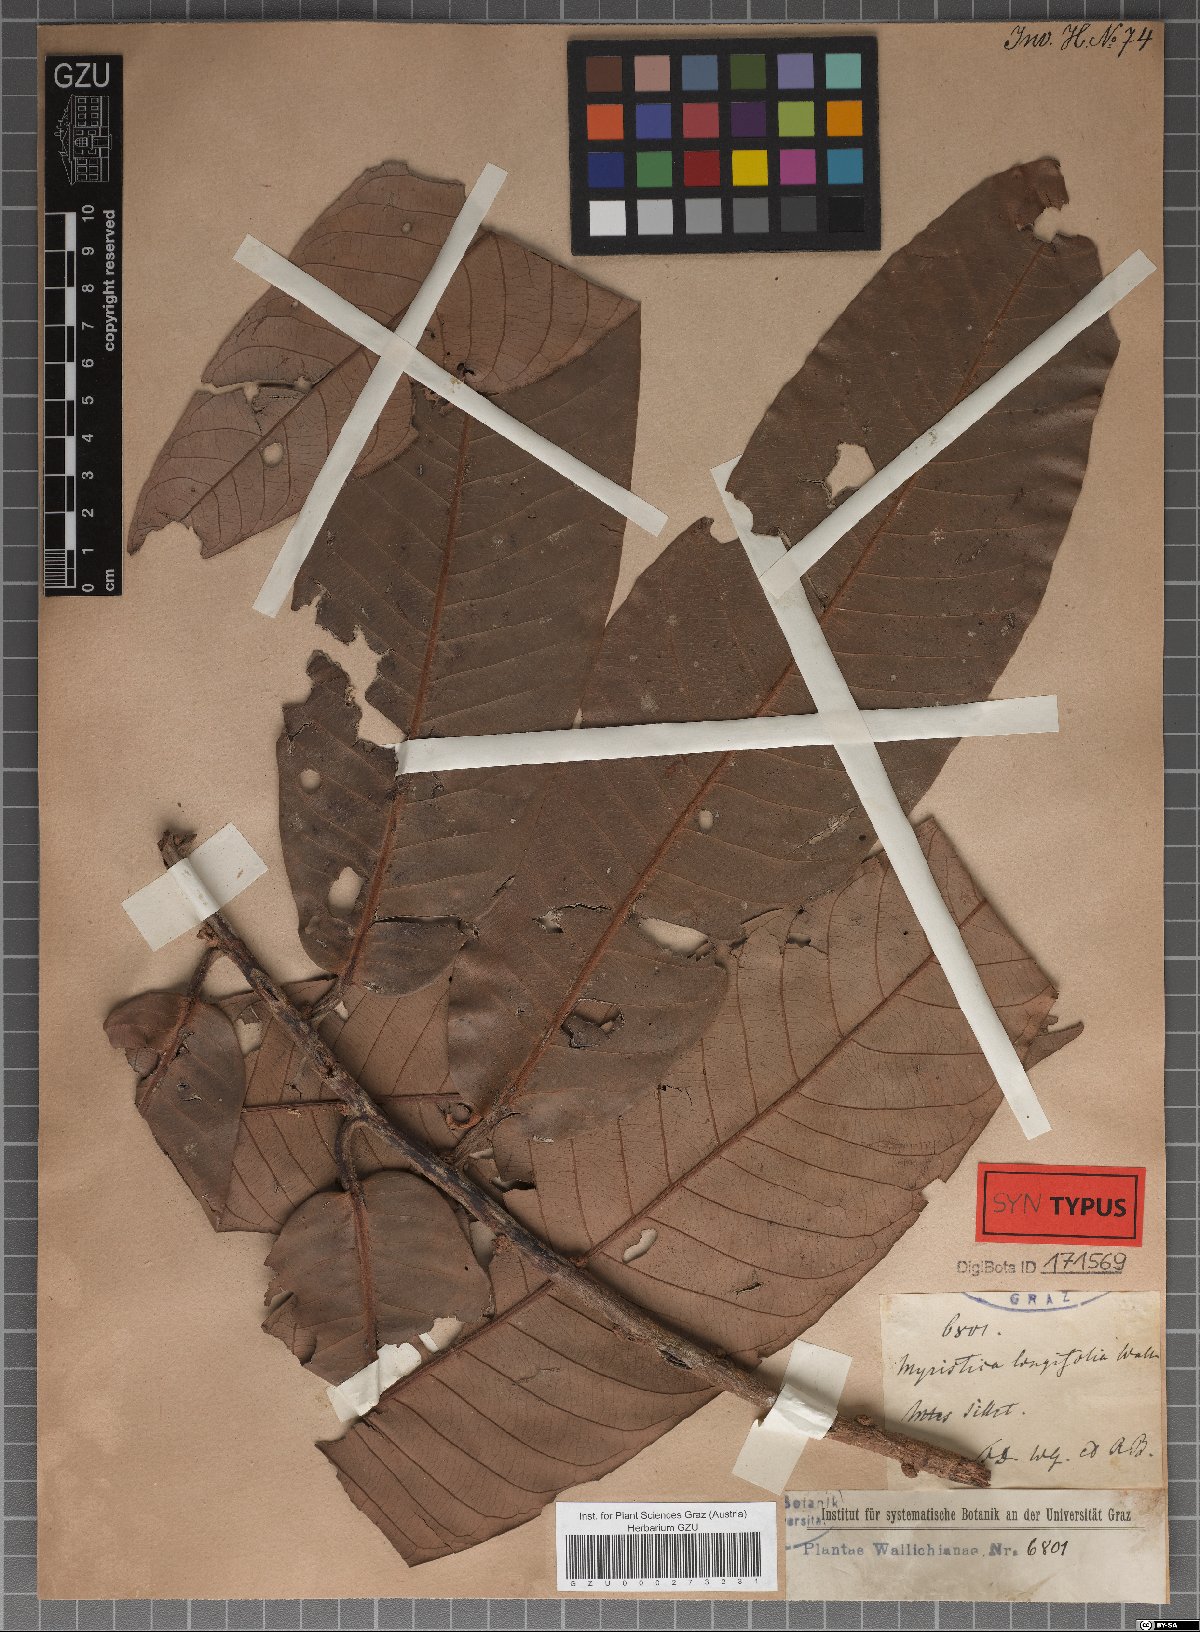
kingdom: Plantae
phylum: Tracheophyta
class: Magnoliopsida
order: Magnoliales
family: Myristicaceae
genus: Knema
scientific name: Knema furfuracea
